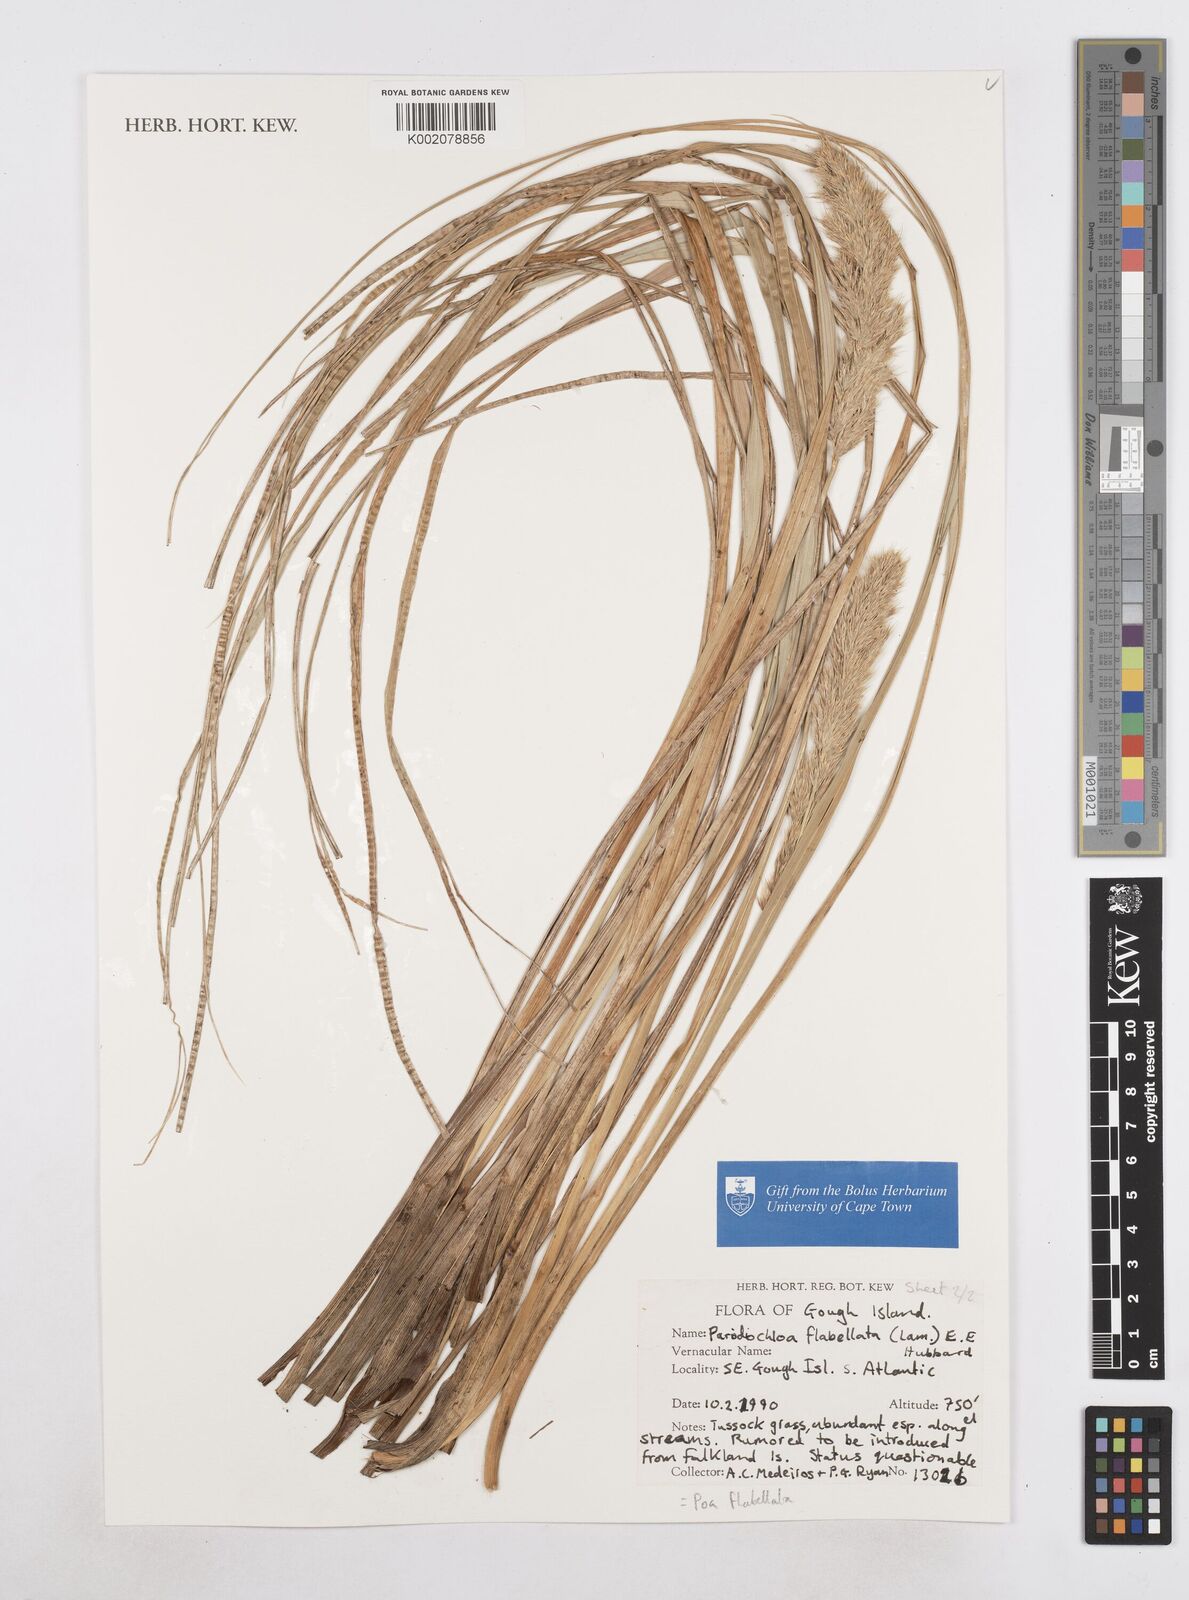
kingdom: Plantae
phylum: Tracheophyta
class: Liliopsida
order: Poales
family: Poaceae
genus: Poa
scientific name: Poa flabellata
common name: Tussac-grass
